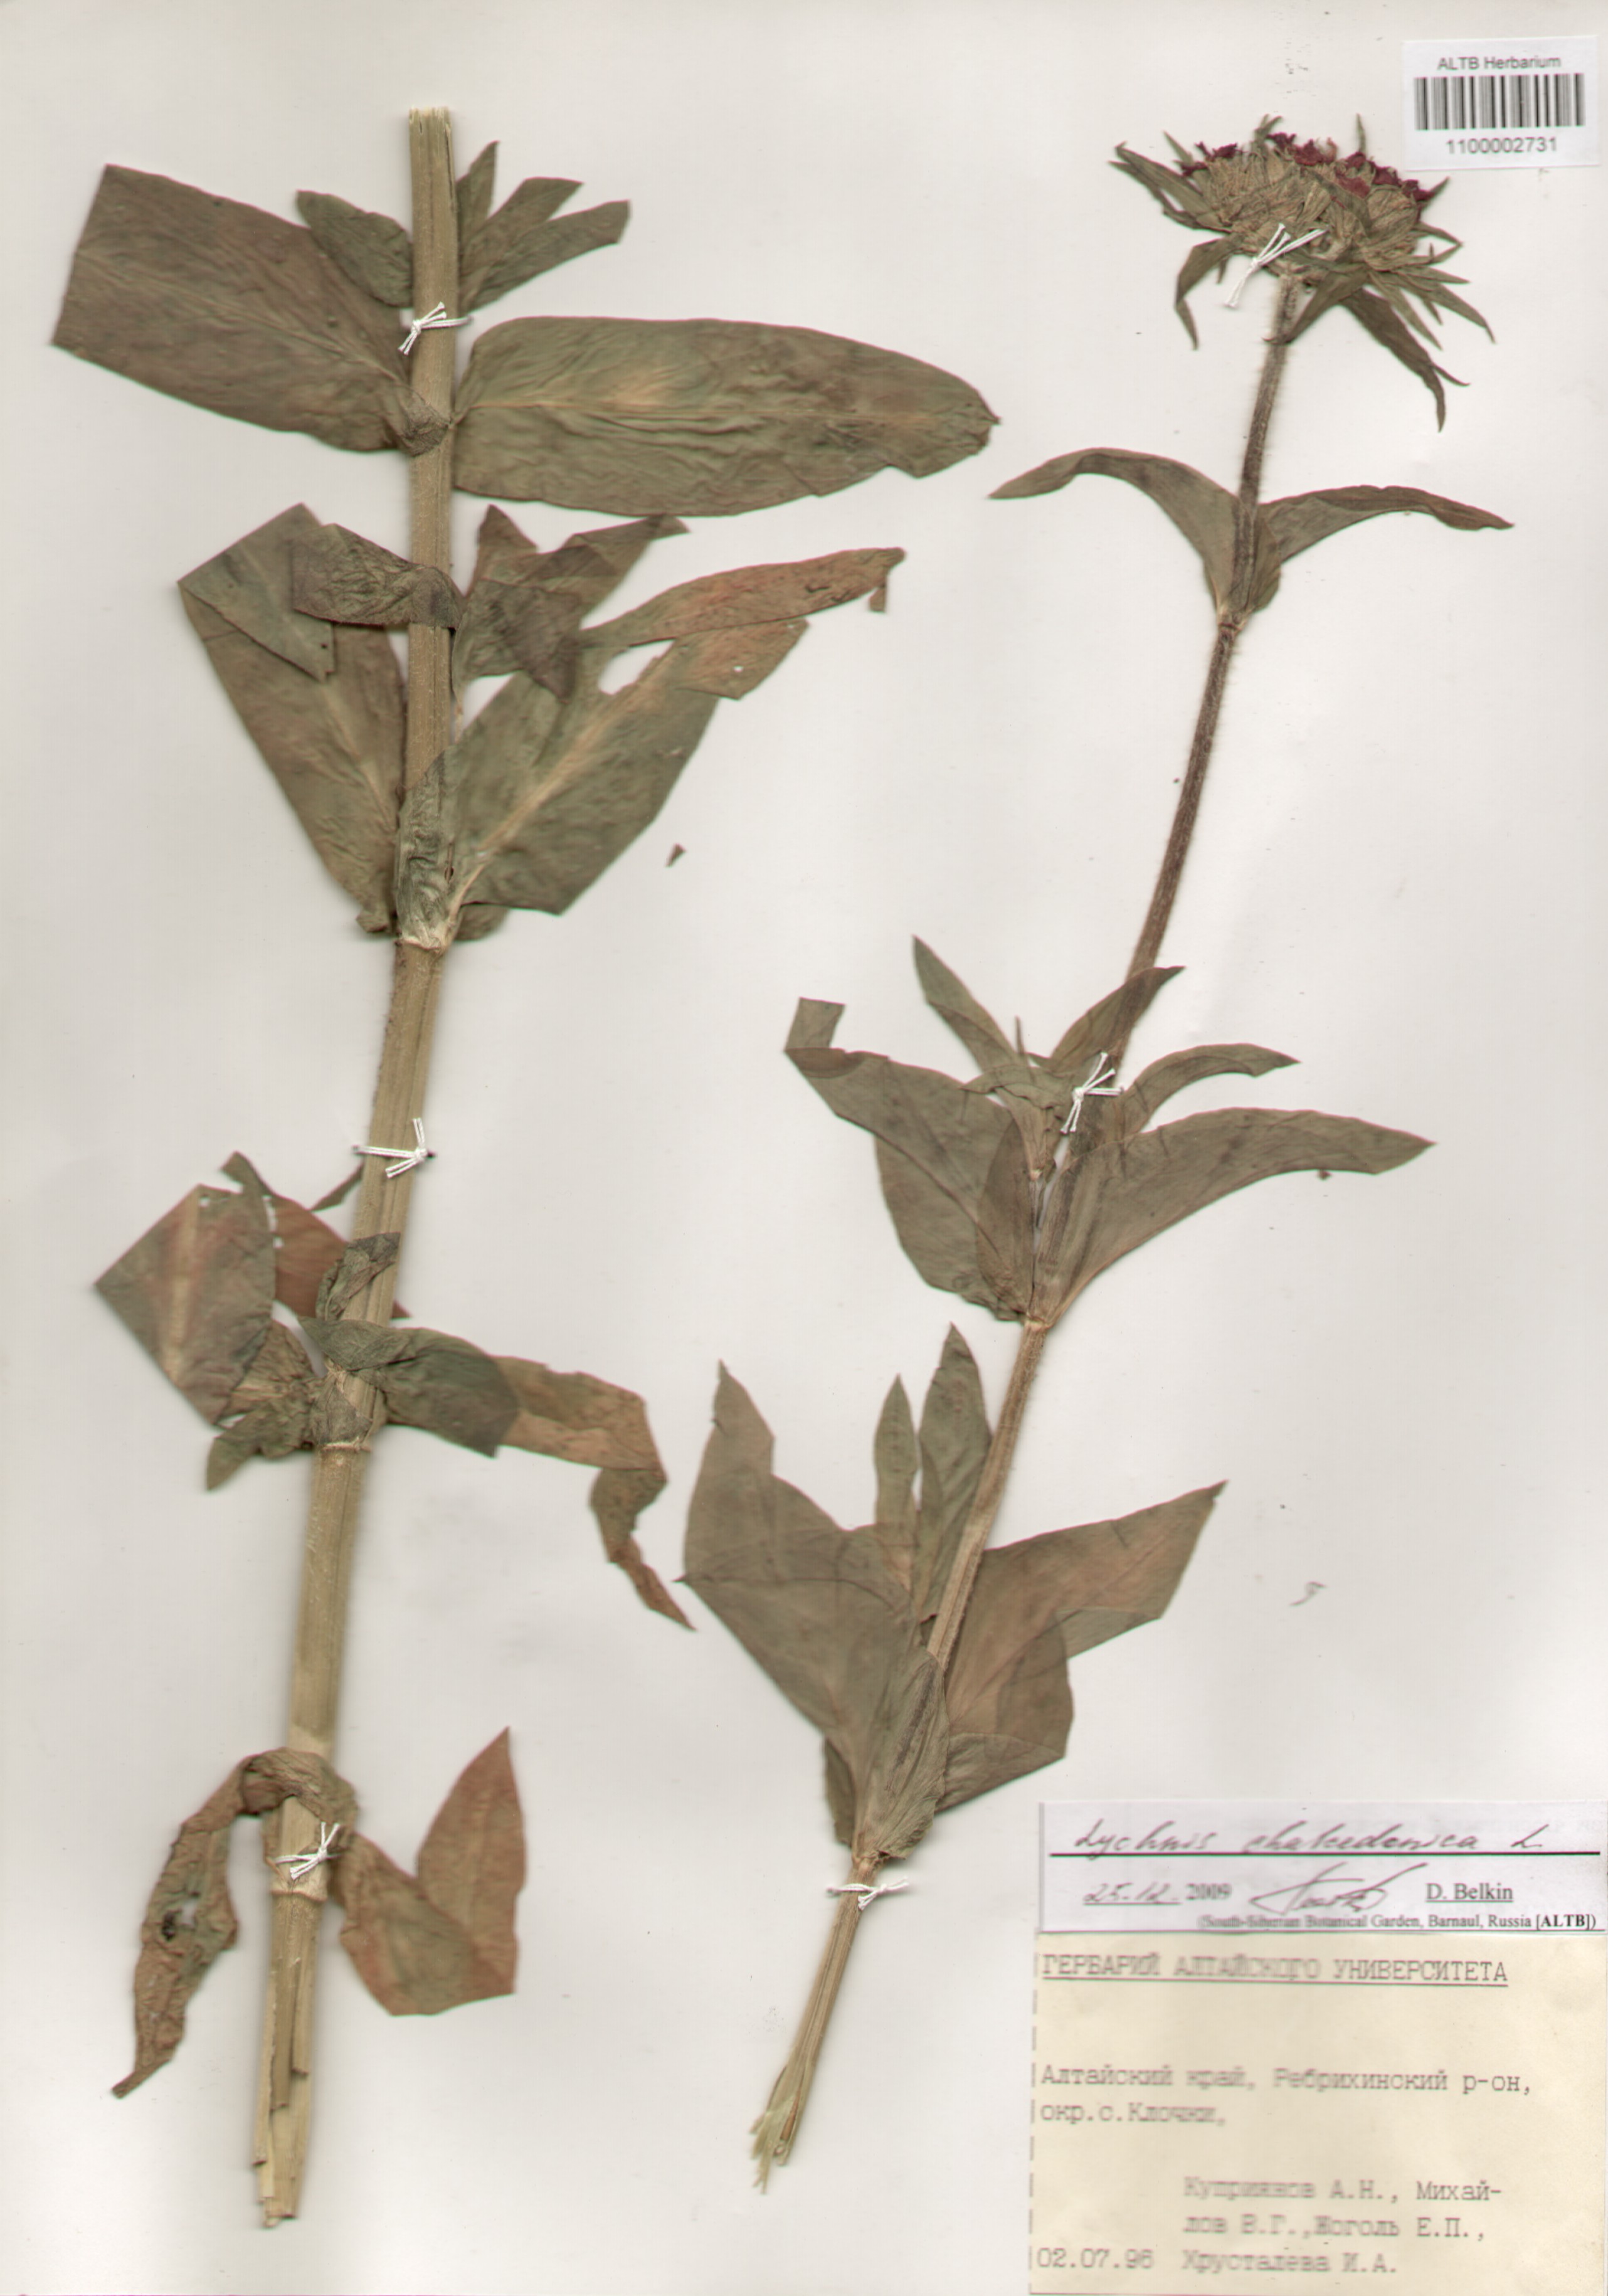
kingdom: Plantae
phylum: Tracheophyta
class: Magnoliopsida
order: Caryophyllales
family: Caryophyllaceae
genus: Silene
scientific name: Silene chalcedonica
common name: Maltese-cross
